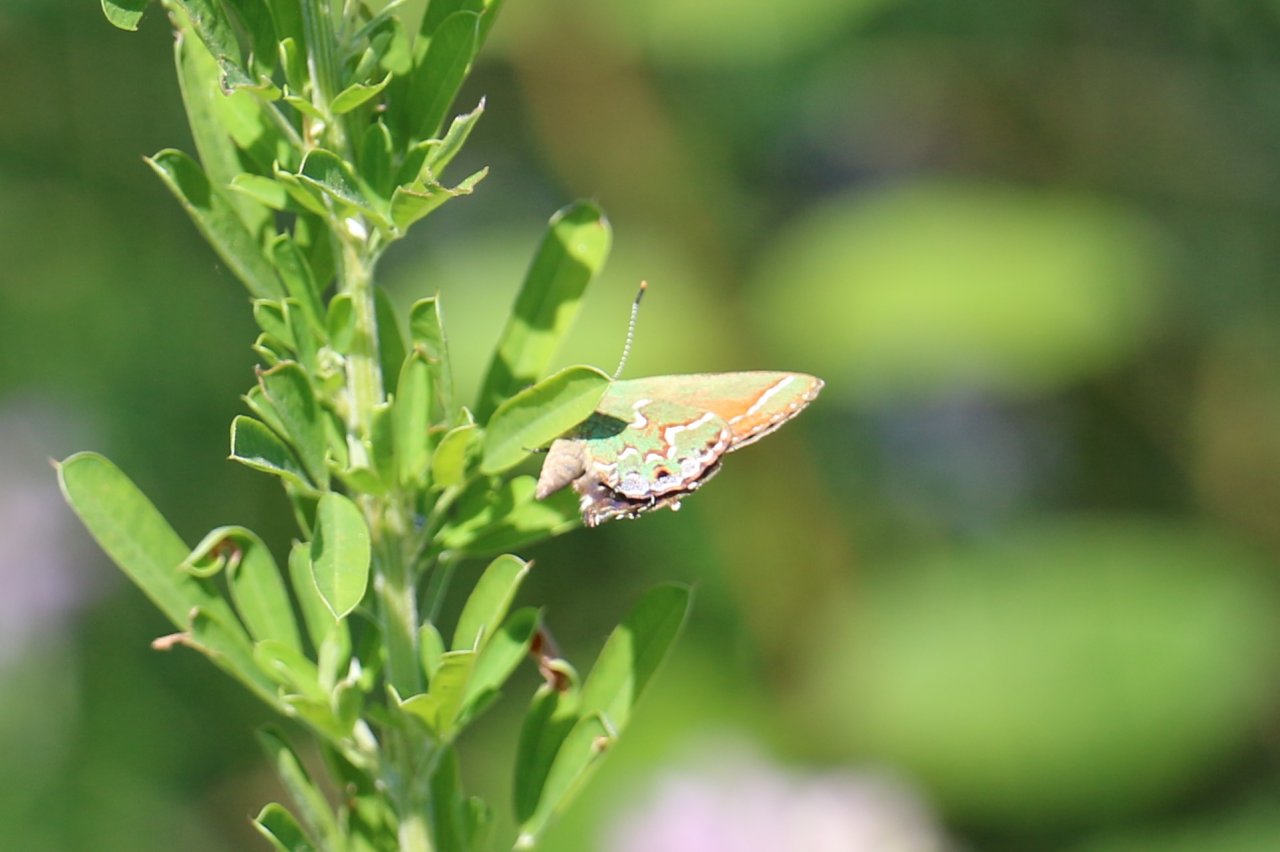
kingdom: Animalia
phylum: Arthropoda
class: Insecta
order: Lepidoptera
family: Lycaenidae
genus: Mitoura
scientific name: Mitoura gryneus
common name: Juniper Hairstreak
